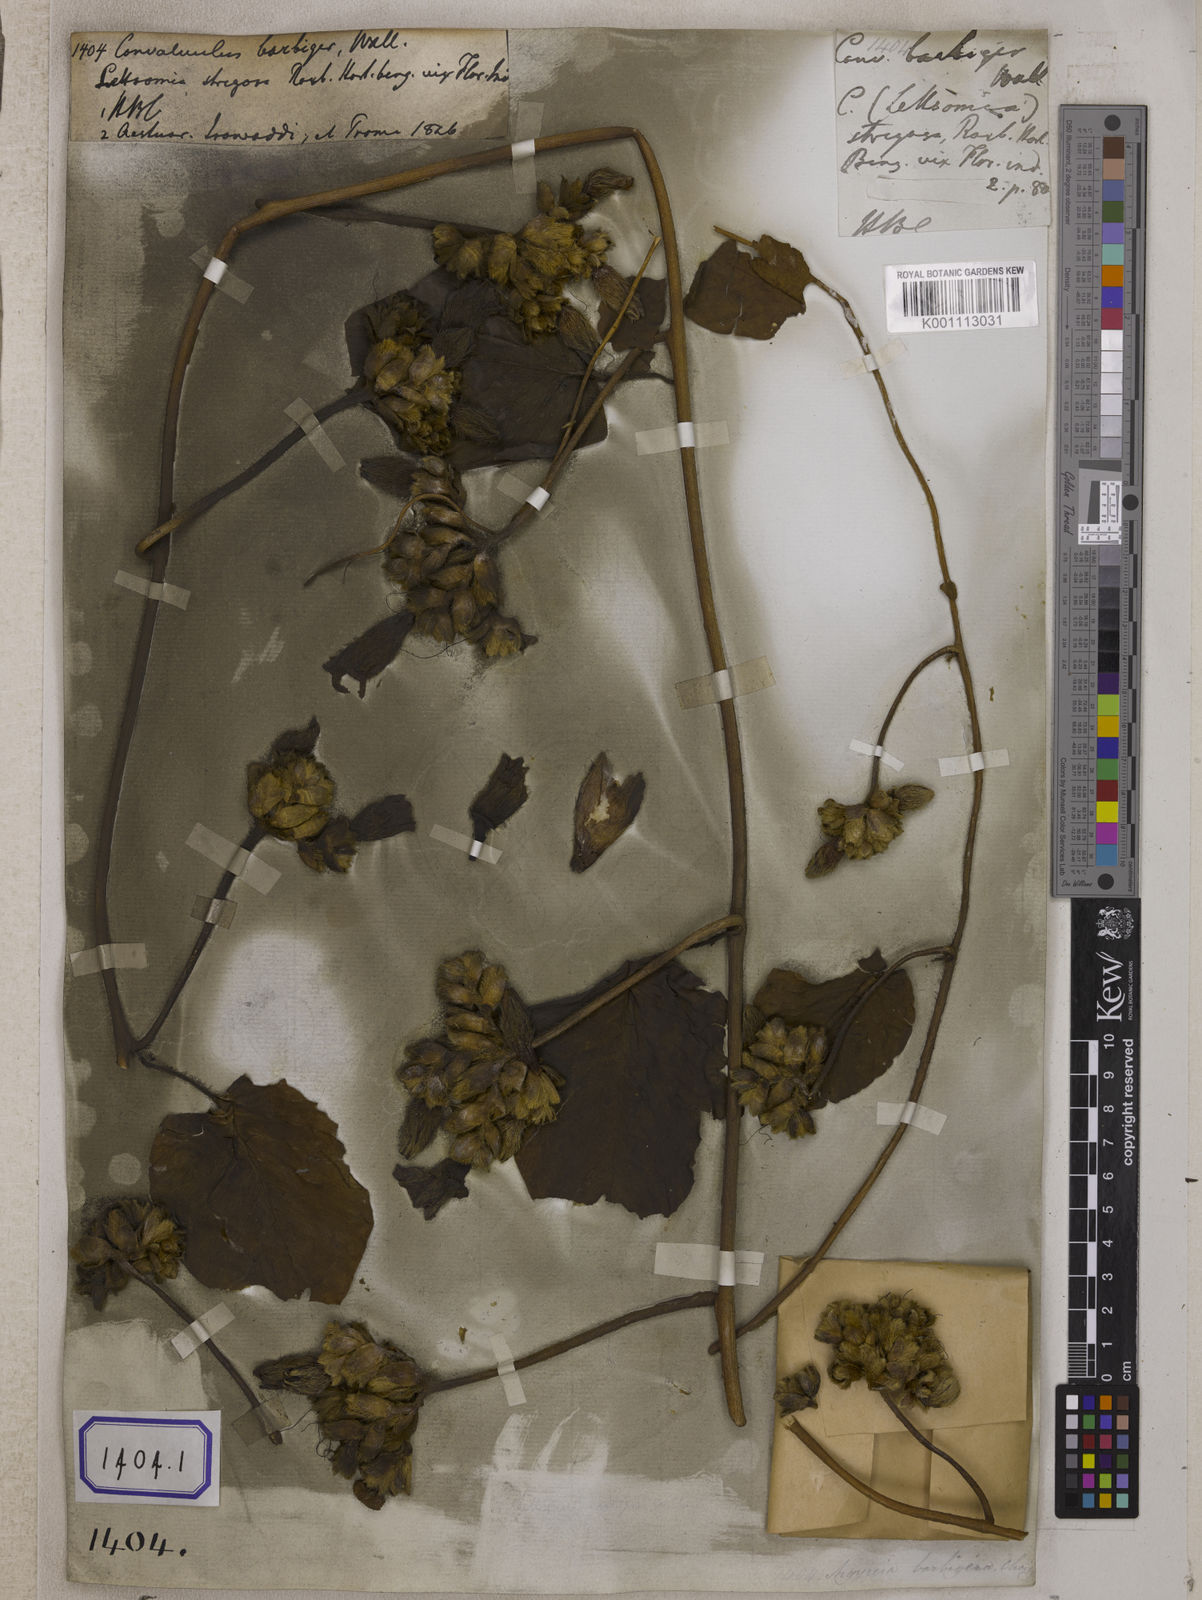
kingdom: Plantae
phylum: Tracheophyta
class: Magnoliopsida
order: Solanales
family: Convolvulaceae
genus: Argyreia
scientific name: Argyreia barbigera
